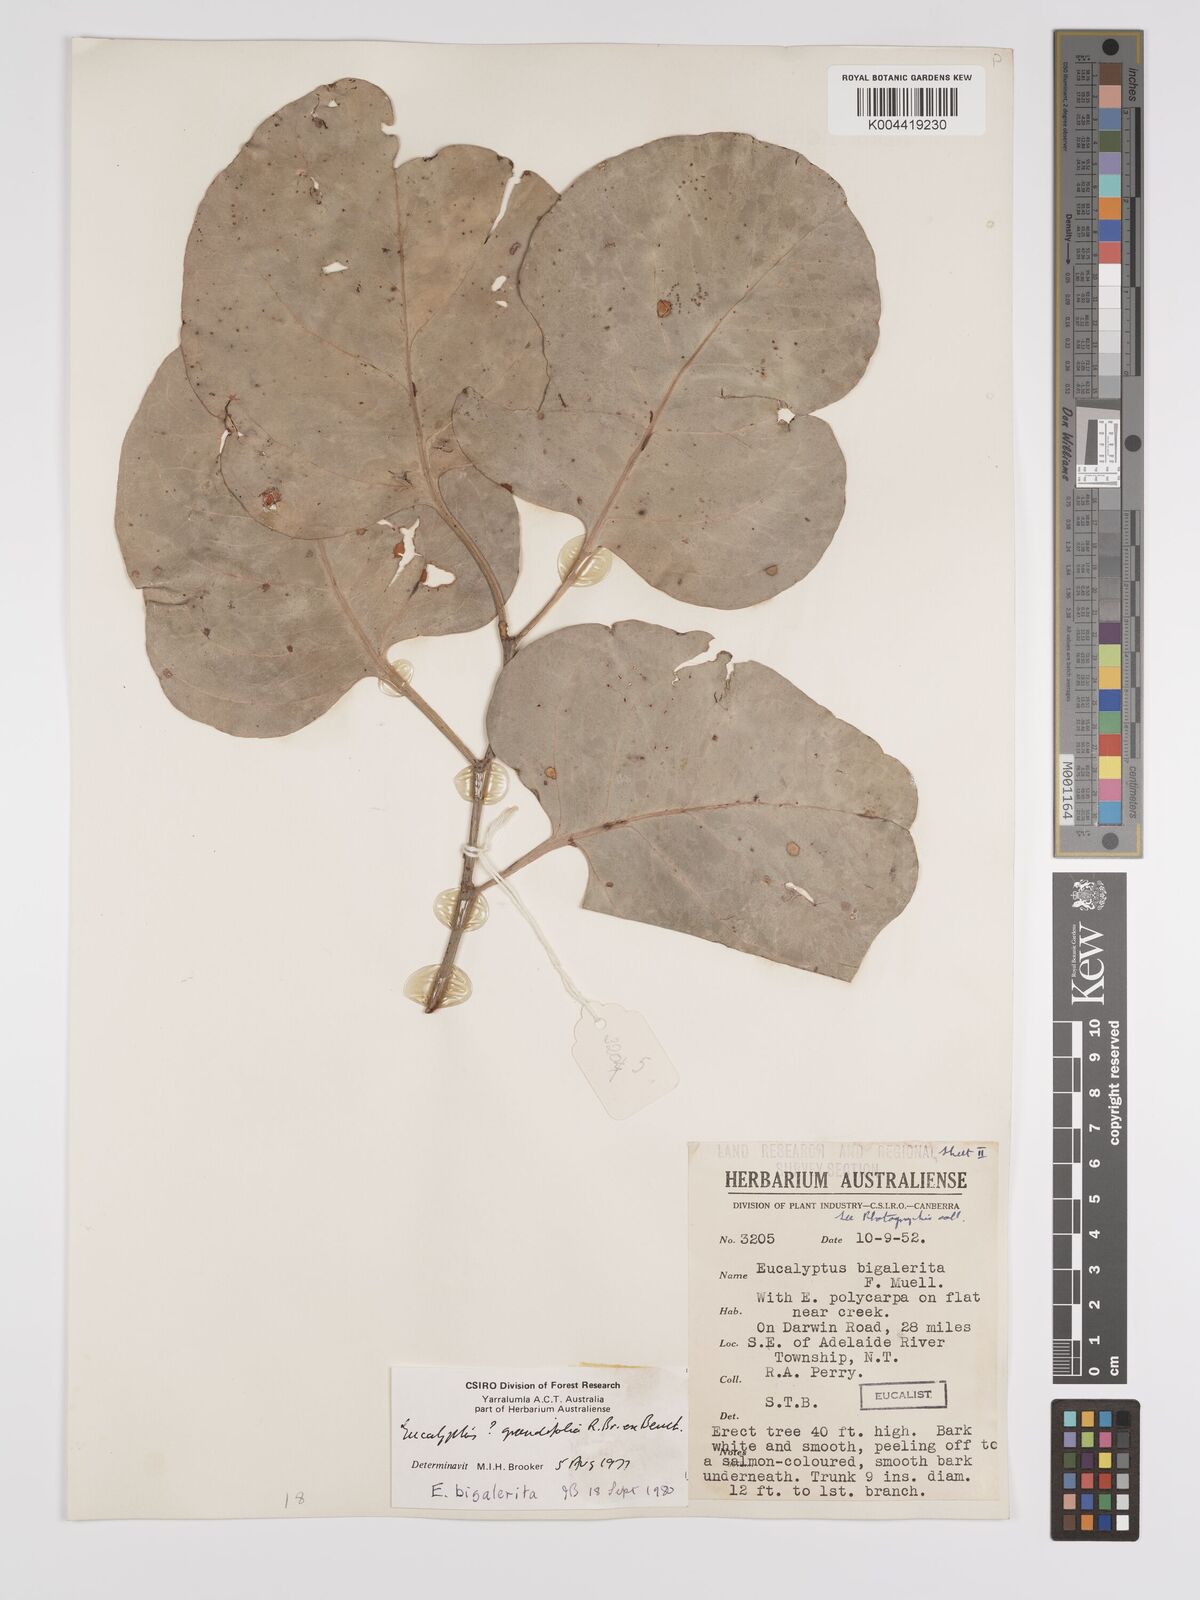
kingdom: Plantae
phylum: Tracheophyta
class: Magnoliopsida
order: Myrtales
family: Myrtaceae
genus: Eucalyptus
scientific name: Eucalyptus bigalerita
